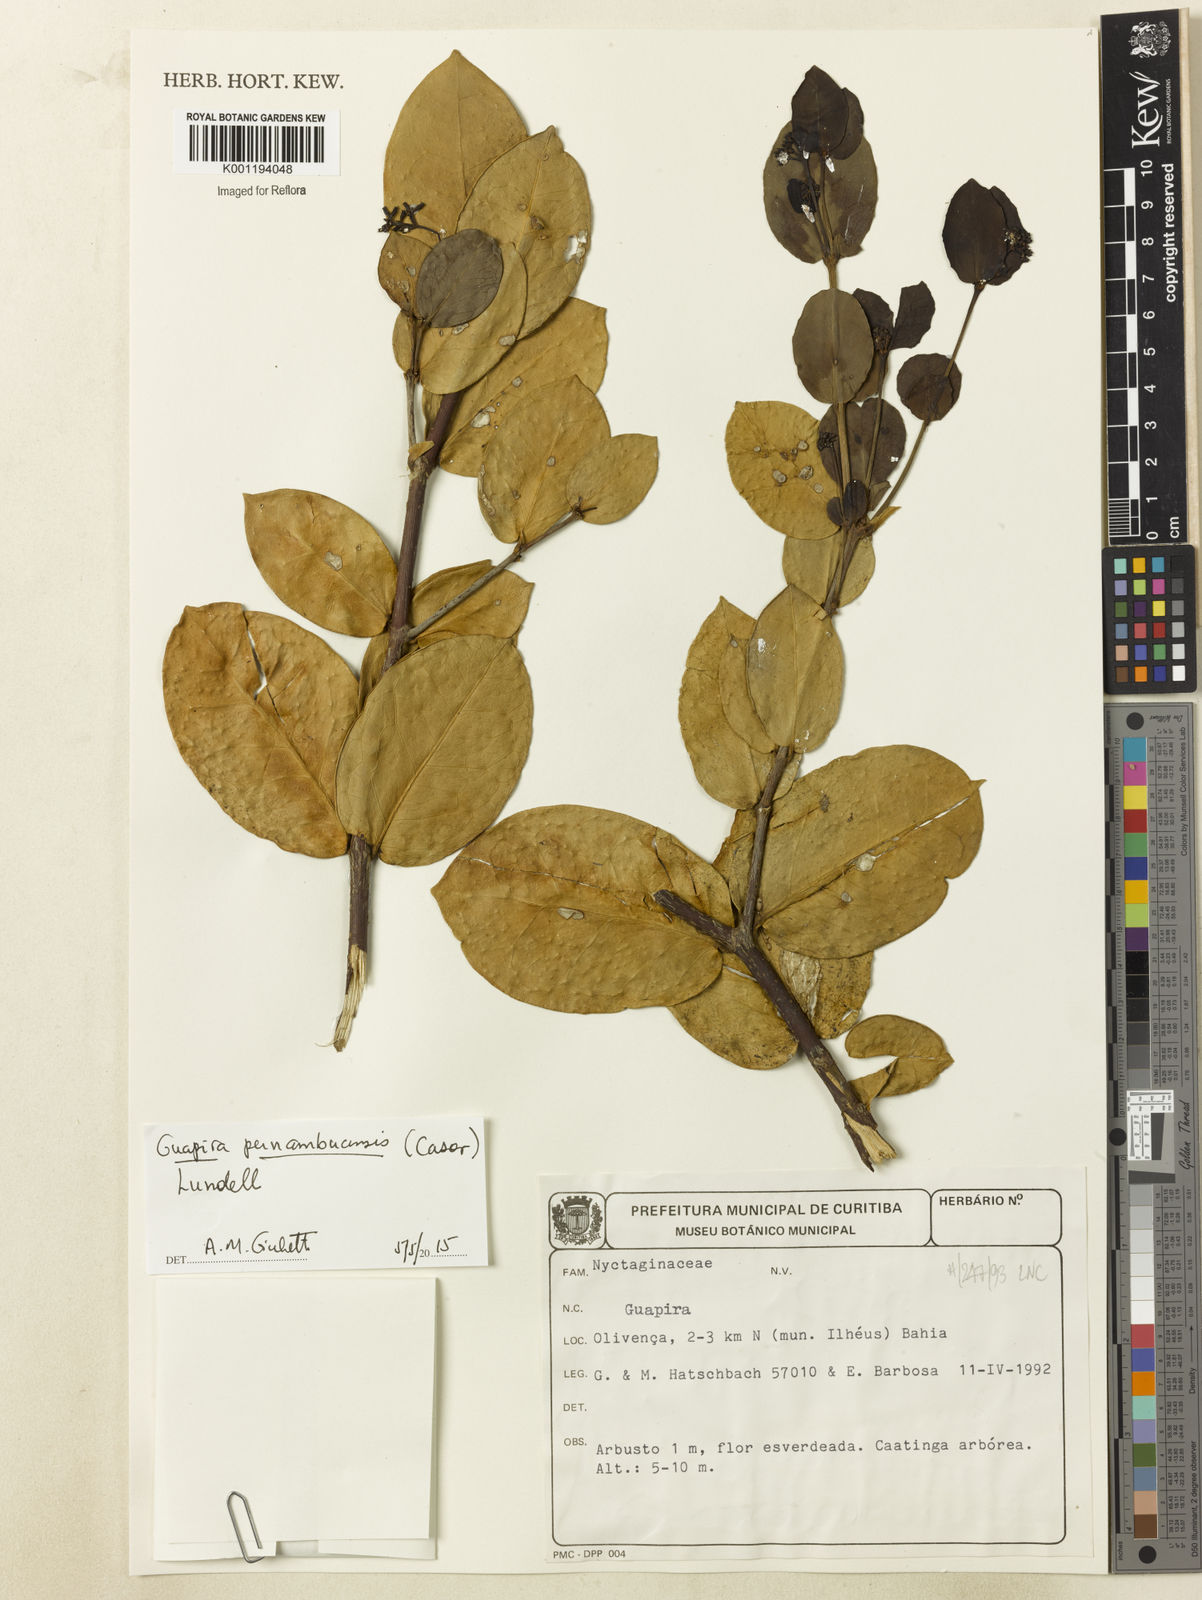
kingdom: Plantae
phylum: Tracheophyta
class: Magnoliopsida
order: Caryophyllales
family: Nyctaginaceae
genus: Guapira
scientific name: Guapira pernambucensis
